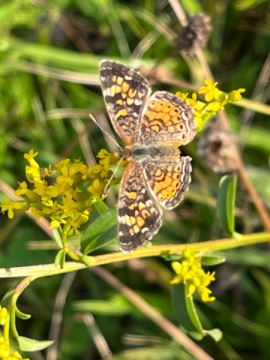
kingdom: Animalia
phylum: Arthropoda
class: Insecta
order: Lepidoptera
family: Nymphalidae
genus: Phyciodes
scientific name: Phyciodes
